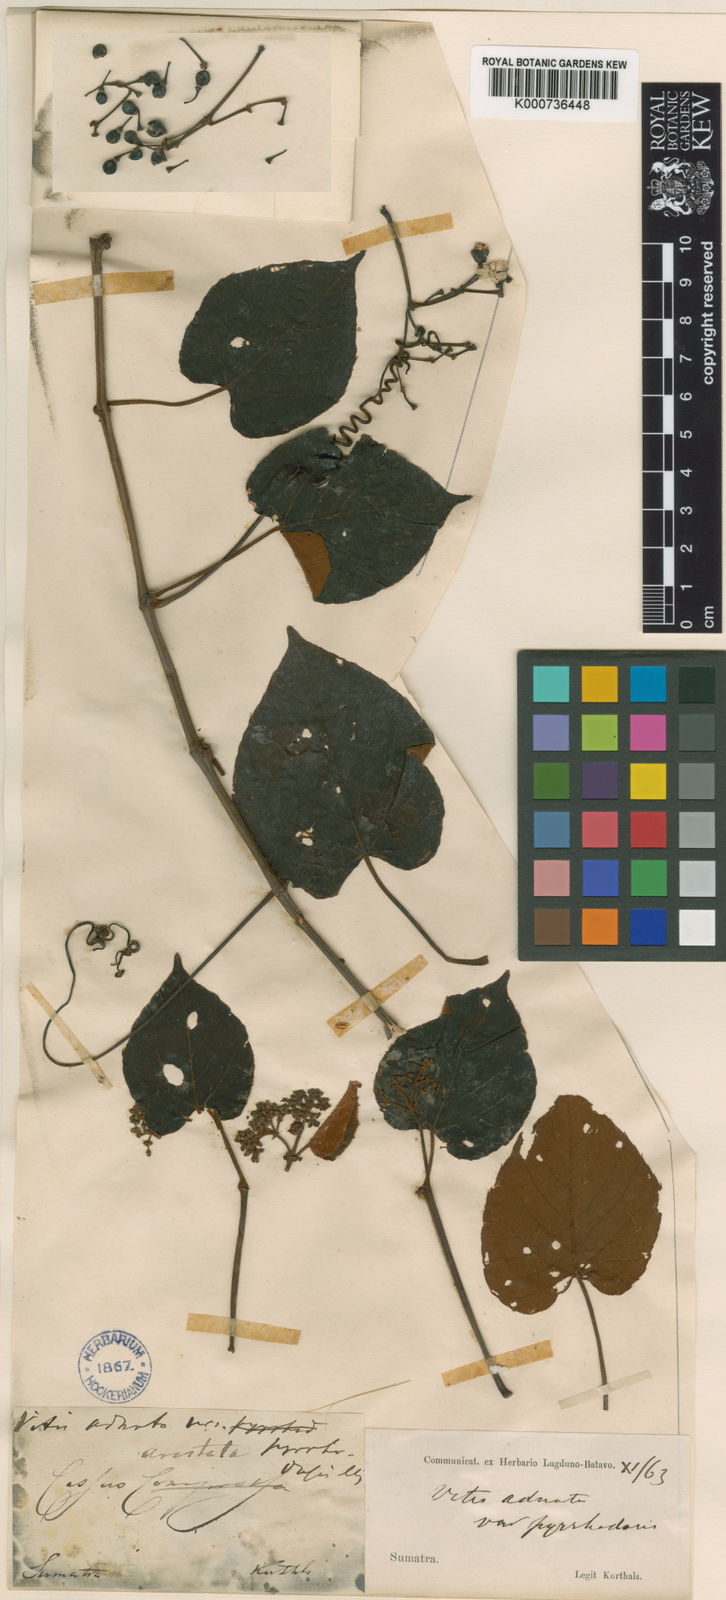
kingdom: Plantae
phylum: Tracheophyta
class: Magnoliopsida
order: Vitales
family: Vitaceae
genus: Cissus
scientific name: Cissus aristata
